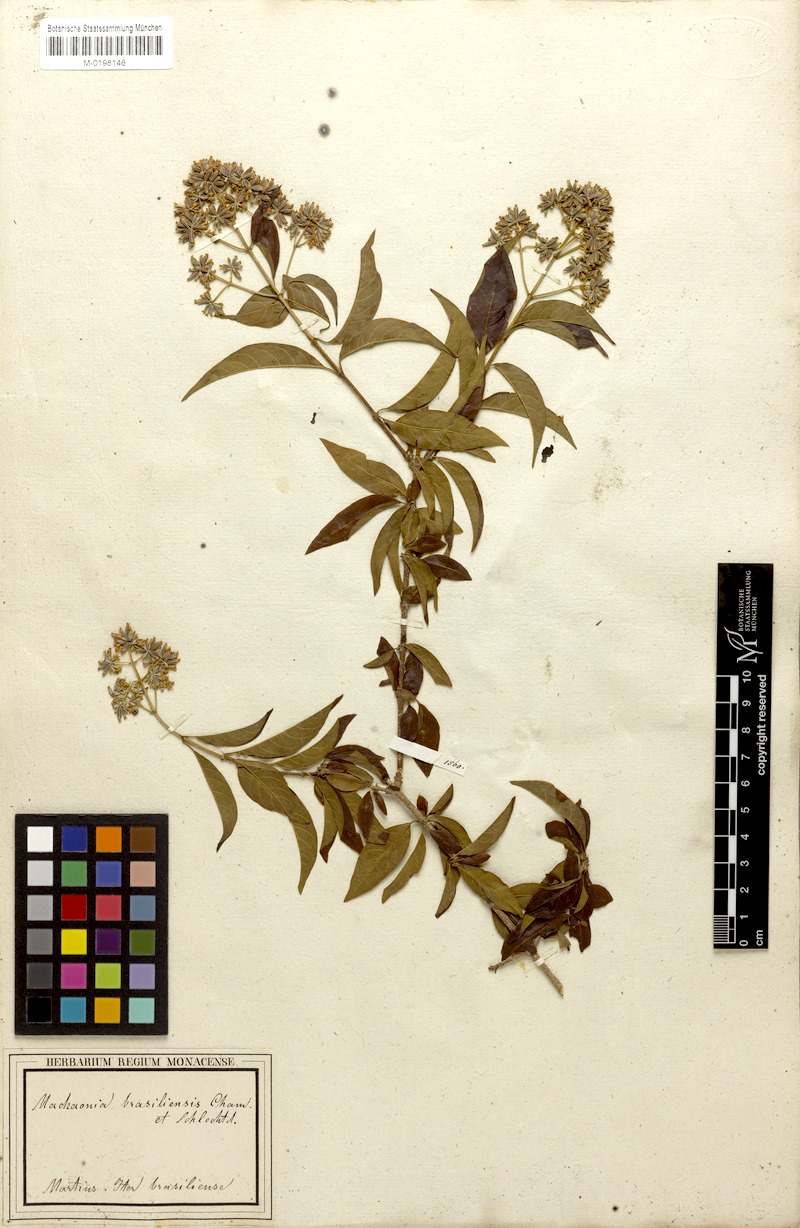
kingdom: Plantae
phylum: Tracheophyta
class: Magnoliopsida
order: Gentianales
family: Rubiaceae
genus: Machaonia
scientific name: Machaonia brasiliensis
